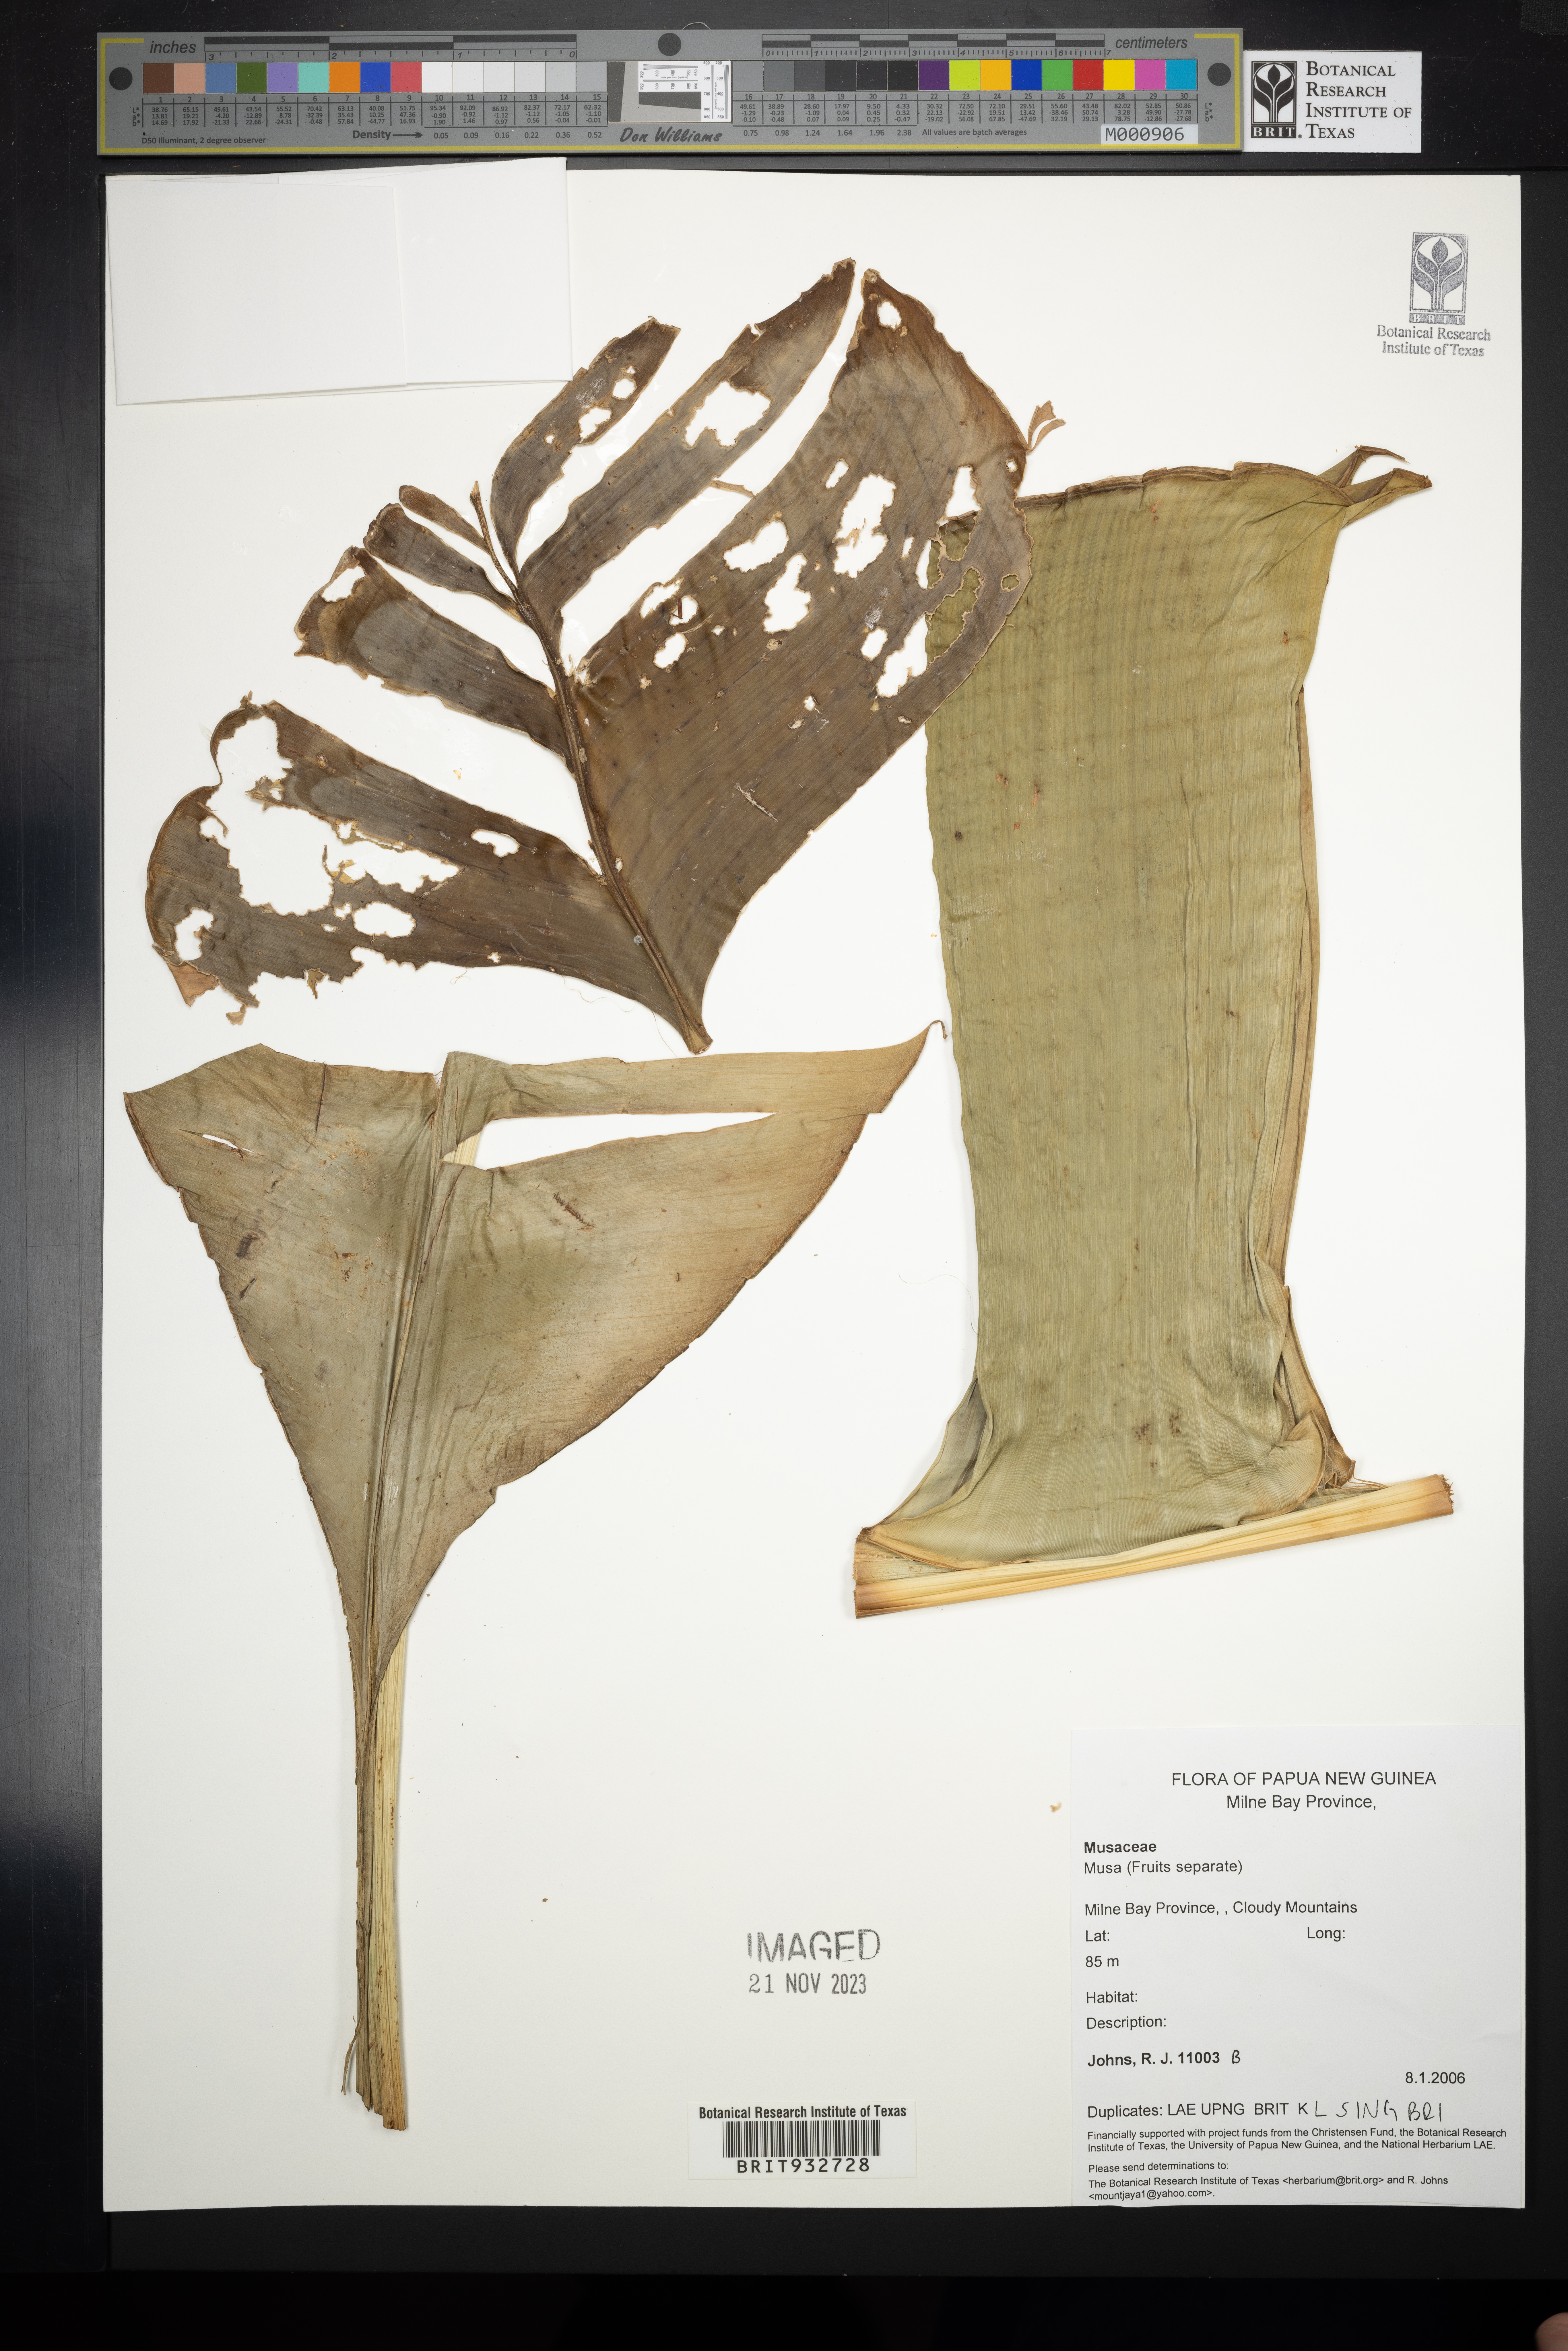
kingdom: Plantae
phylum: Tracheophyta
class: Liliopsida
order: Zingiberales
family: Musaceae
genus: Musa
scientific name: Musa
